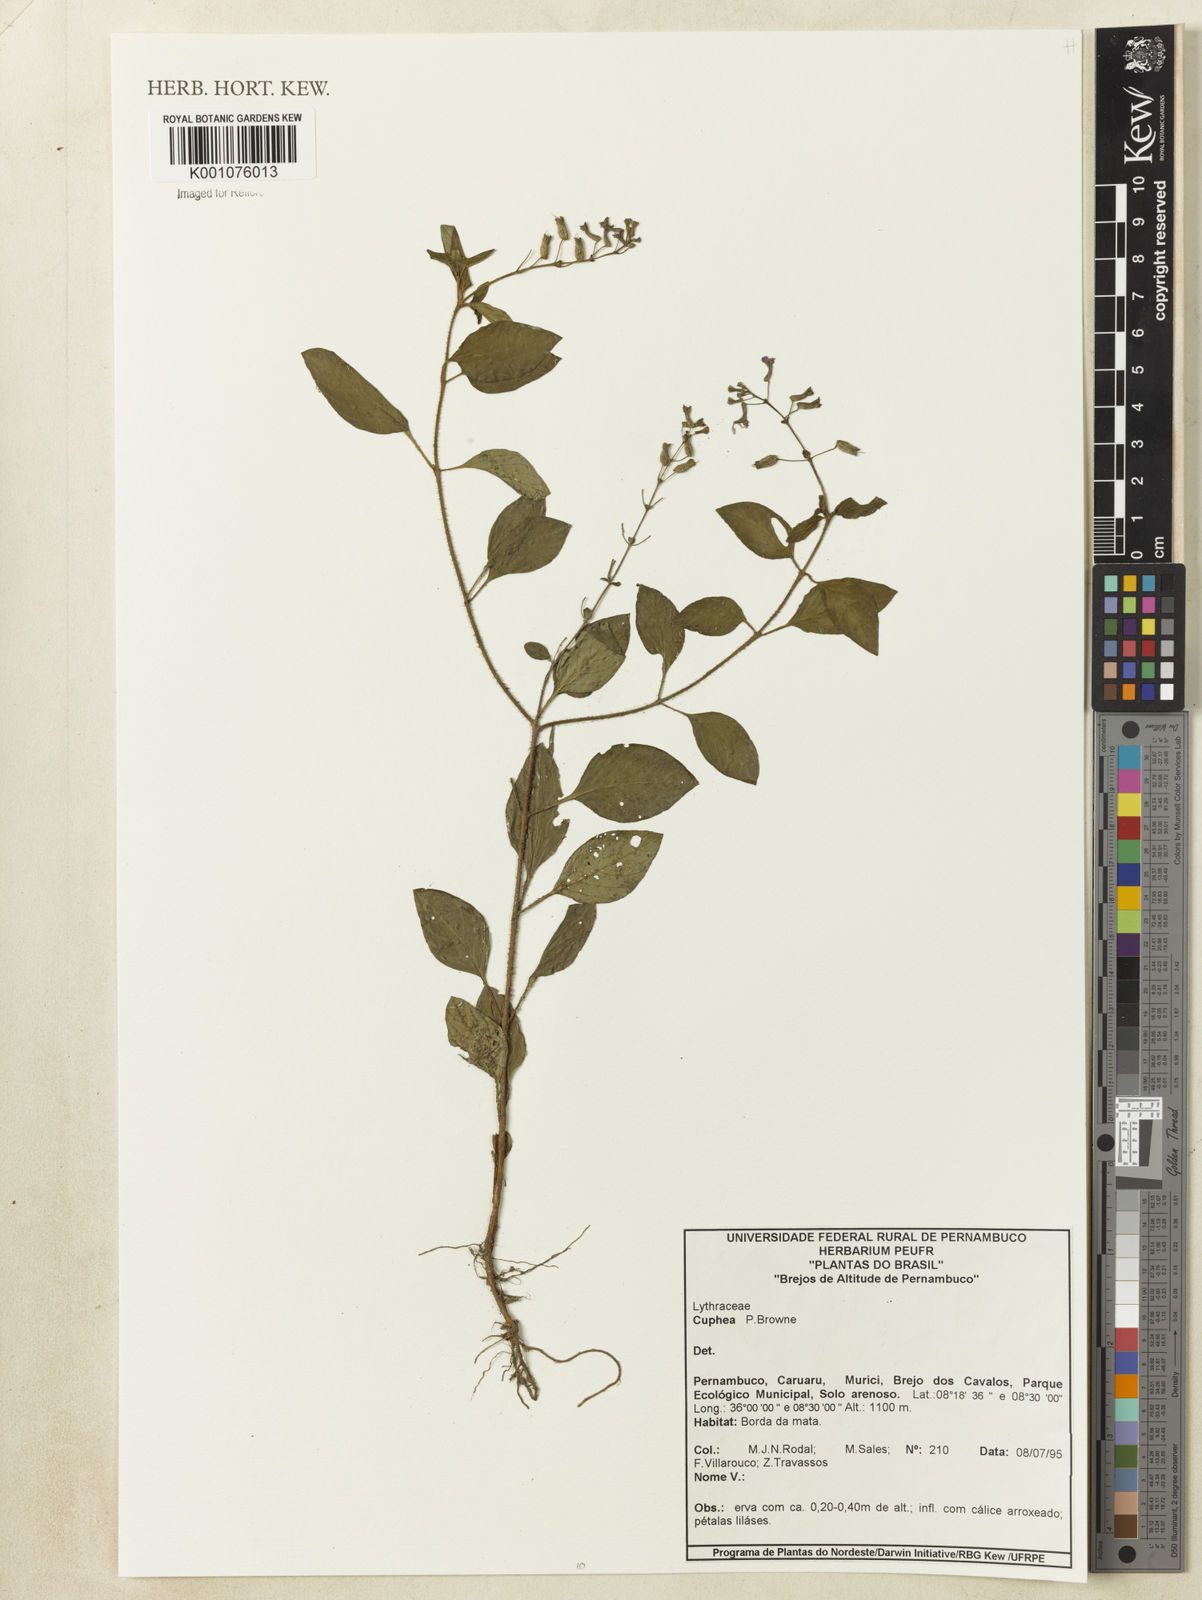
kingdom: Plantae
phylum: Tracheophyta
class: Magnoliopsida
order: Myrtales
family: Lythraceae
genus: Cuphea
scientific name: Cuphea
